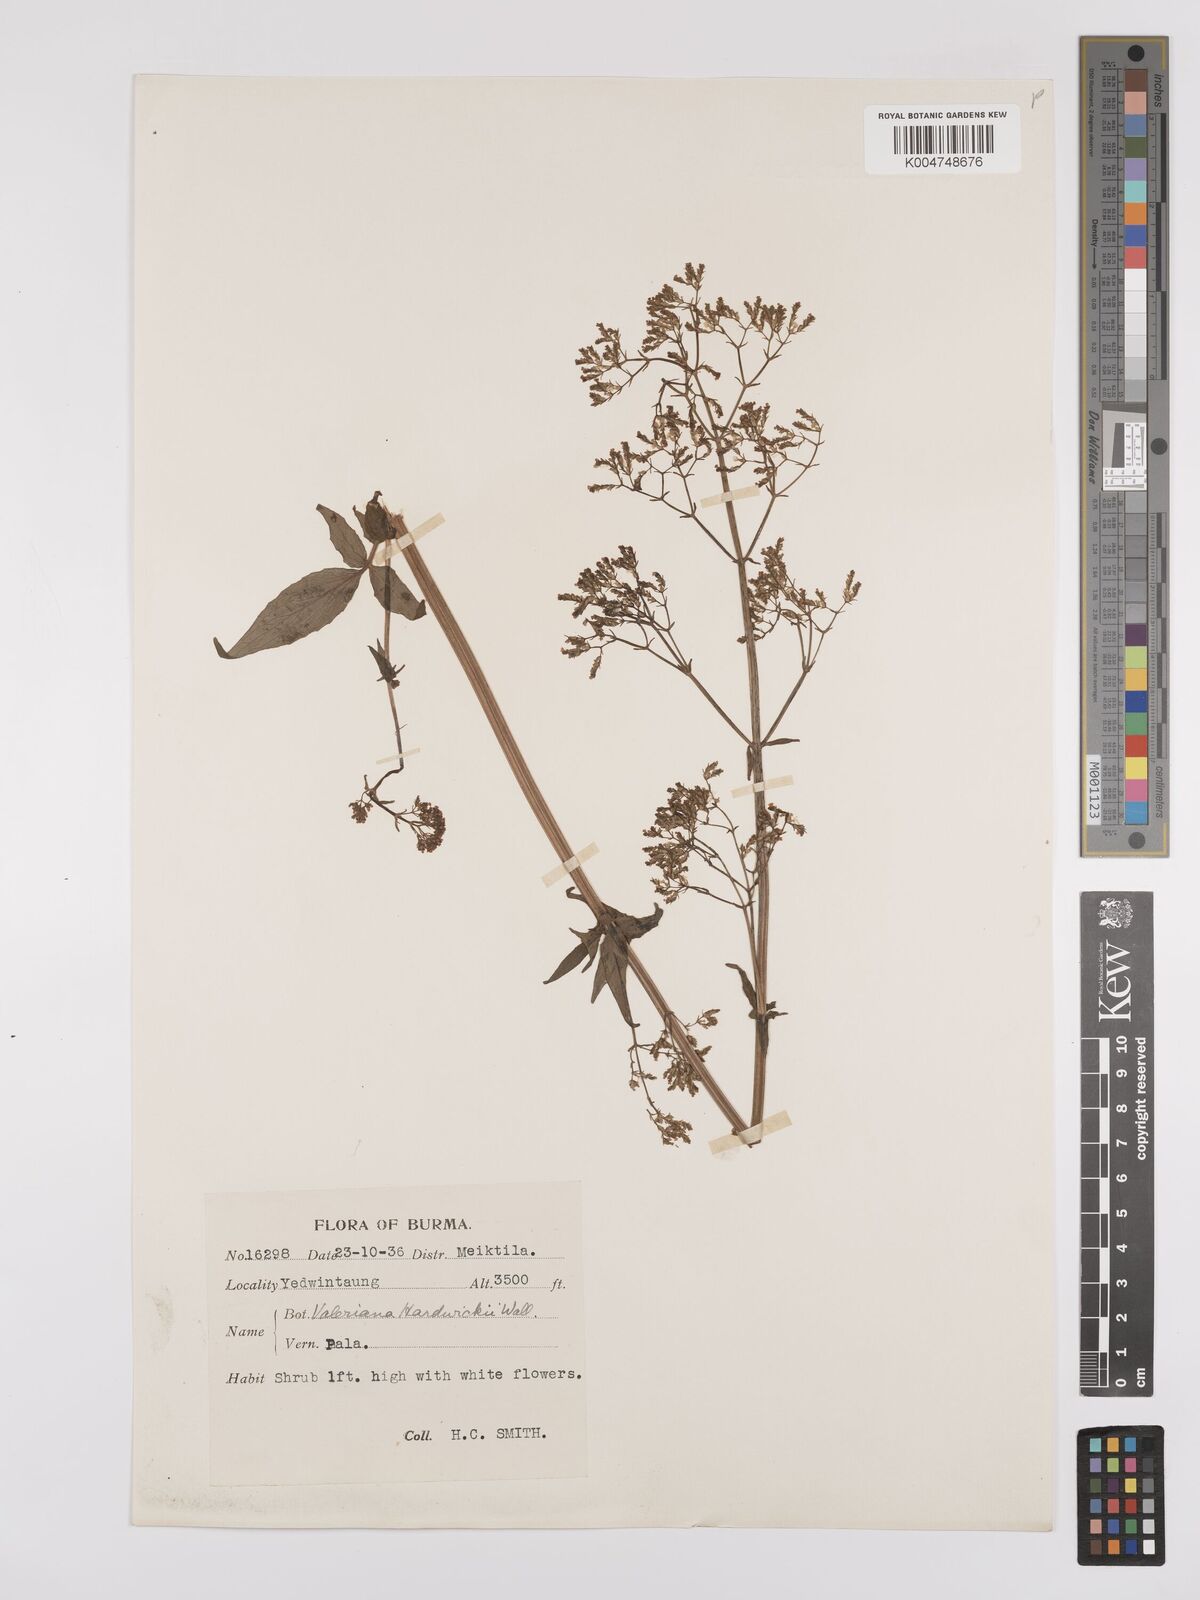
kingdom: Plantae
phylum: Tracheophyta
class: Magnoliopsida
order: Dipsacales
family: Caprifoliaceae
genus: Valeriana
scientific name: Valeriana hardwickei
